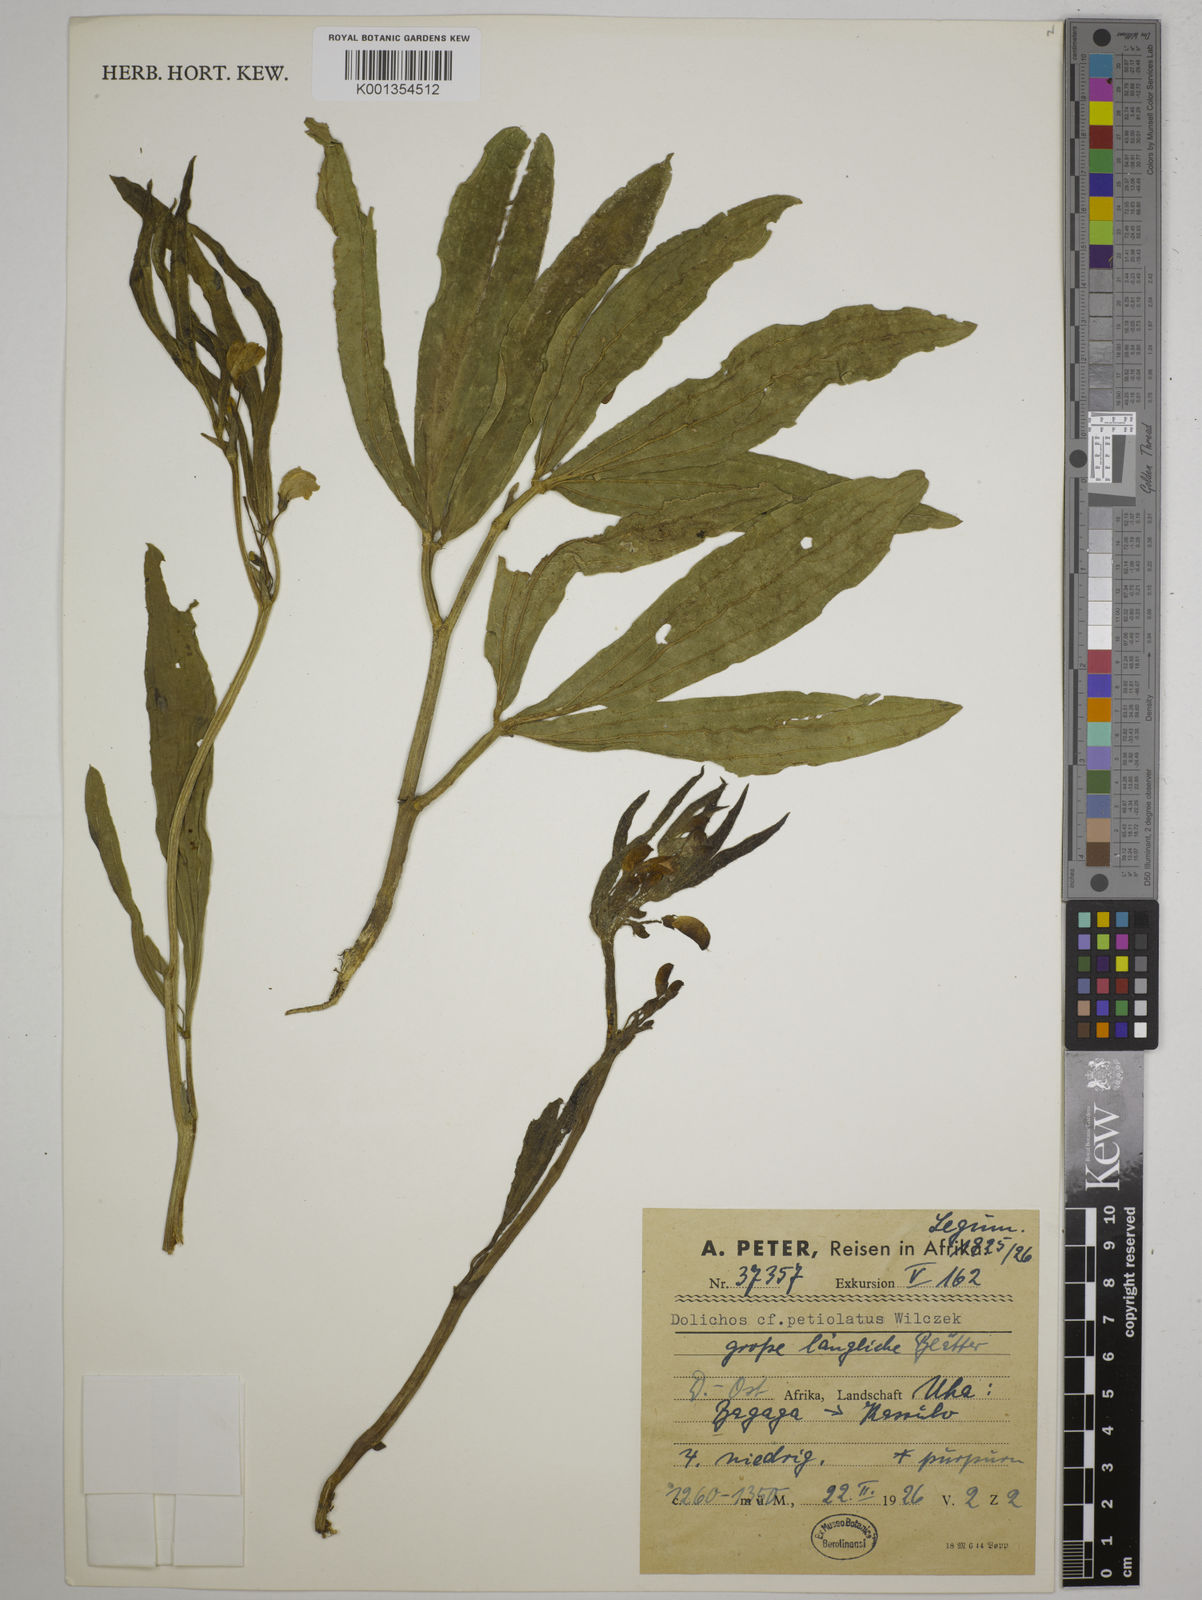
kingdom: Plantae
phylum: Tracheophyta
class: Magnoliopsida
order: Fabales
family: Fabaceae
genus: Dolichos
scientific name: Dolichos petiolatus
